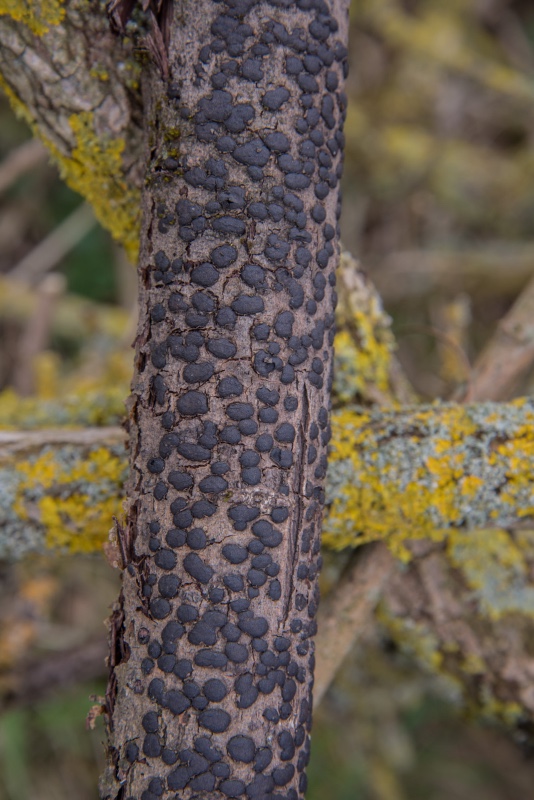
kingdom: Fungi
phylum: Ascomycota
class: Sordariomycetes
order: Xylariales
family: Diatrypaceae
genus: Diatrype
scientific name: Diatrype bullata
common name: pile-kulskorpe
